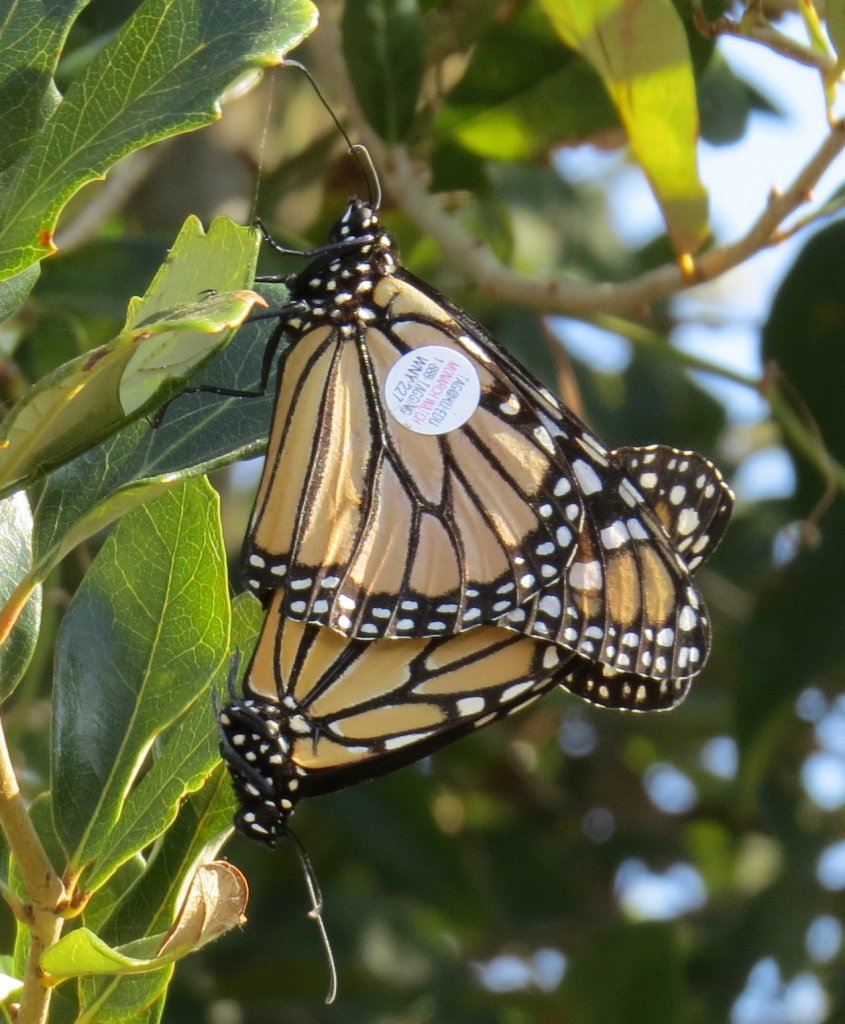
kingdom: Animalia
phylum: Arthropoda
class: Insecta
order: Lepidoptera
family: Nymphalidae
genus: Danaus
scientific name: Danaus plexippus
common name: Monarch
